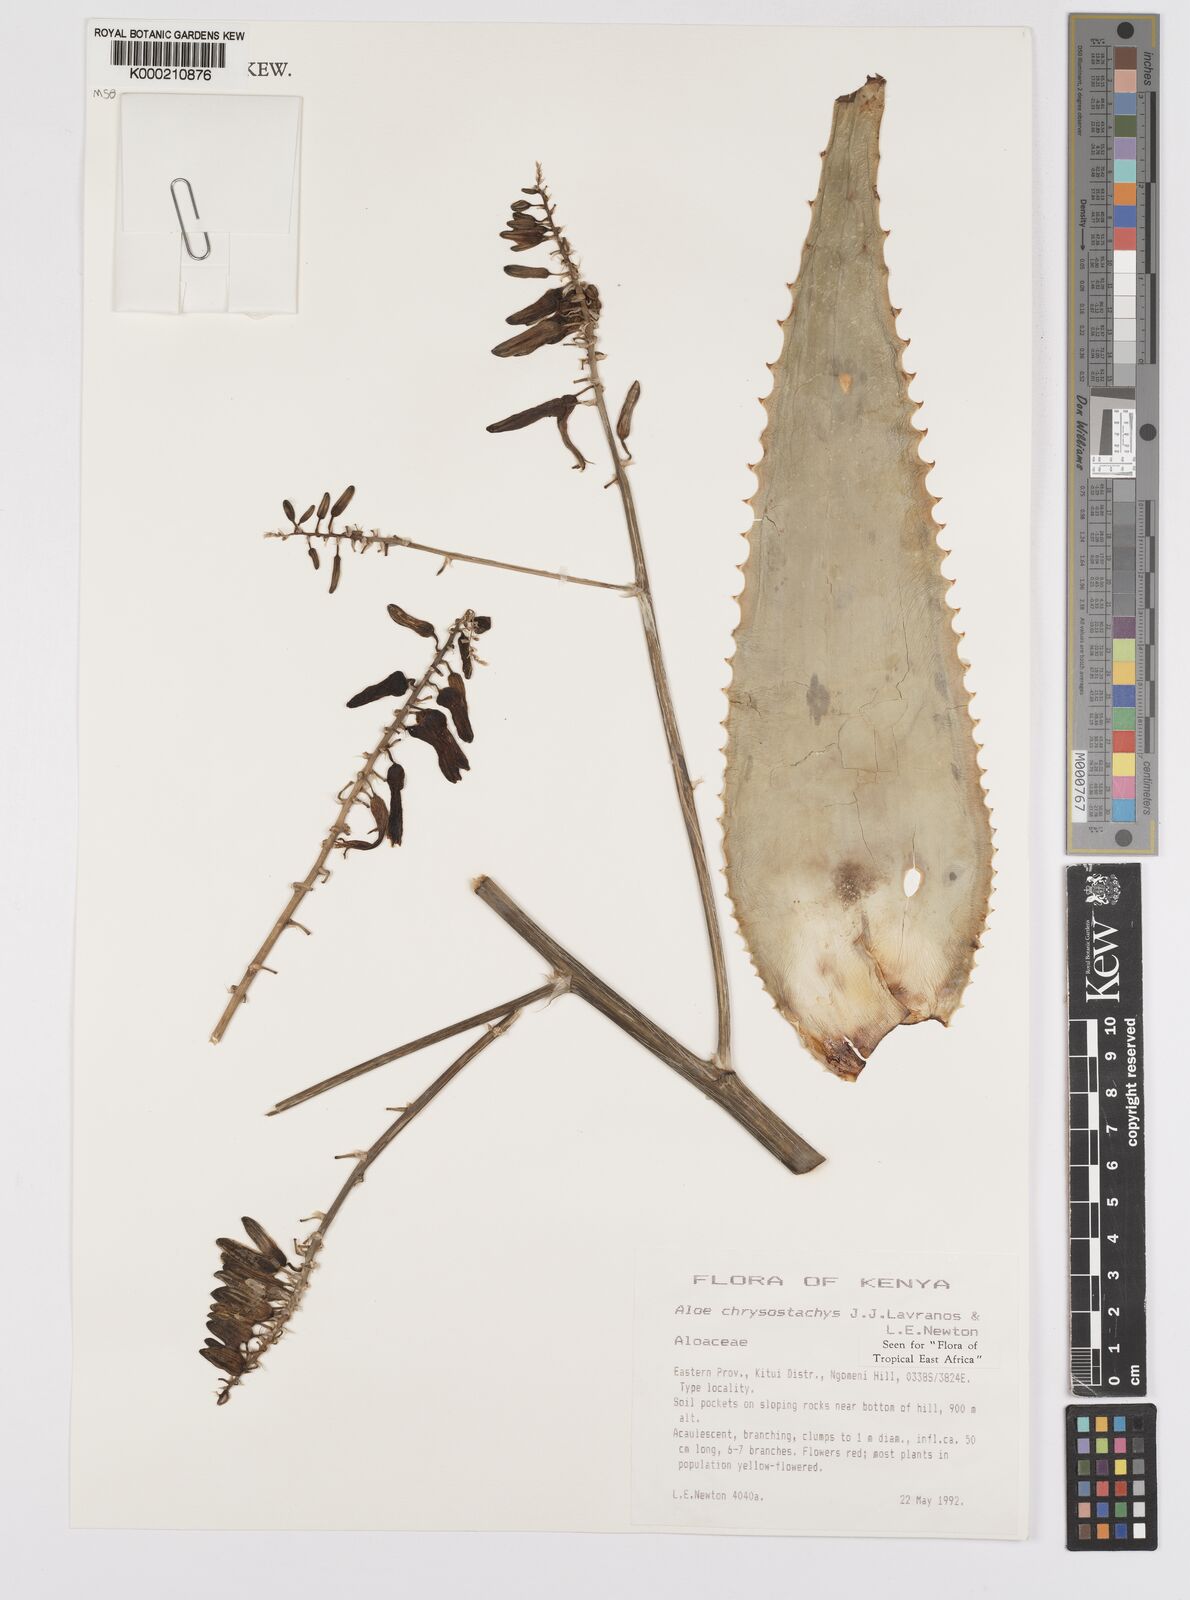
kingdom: Plantae
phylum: Tracheophyta
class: Liliopsida
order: Asparagales
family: Asphodelaceae
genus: Aloe
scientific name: Aloe chrysostachys
